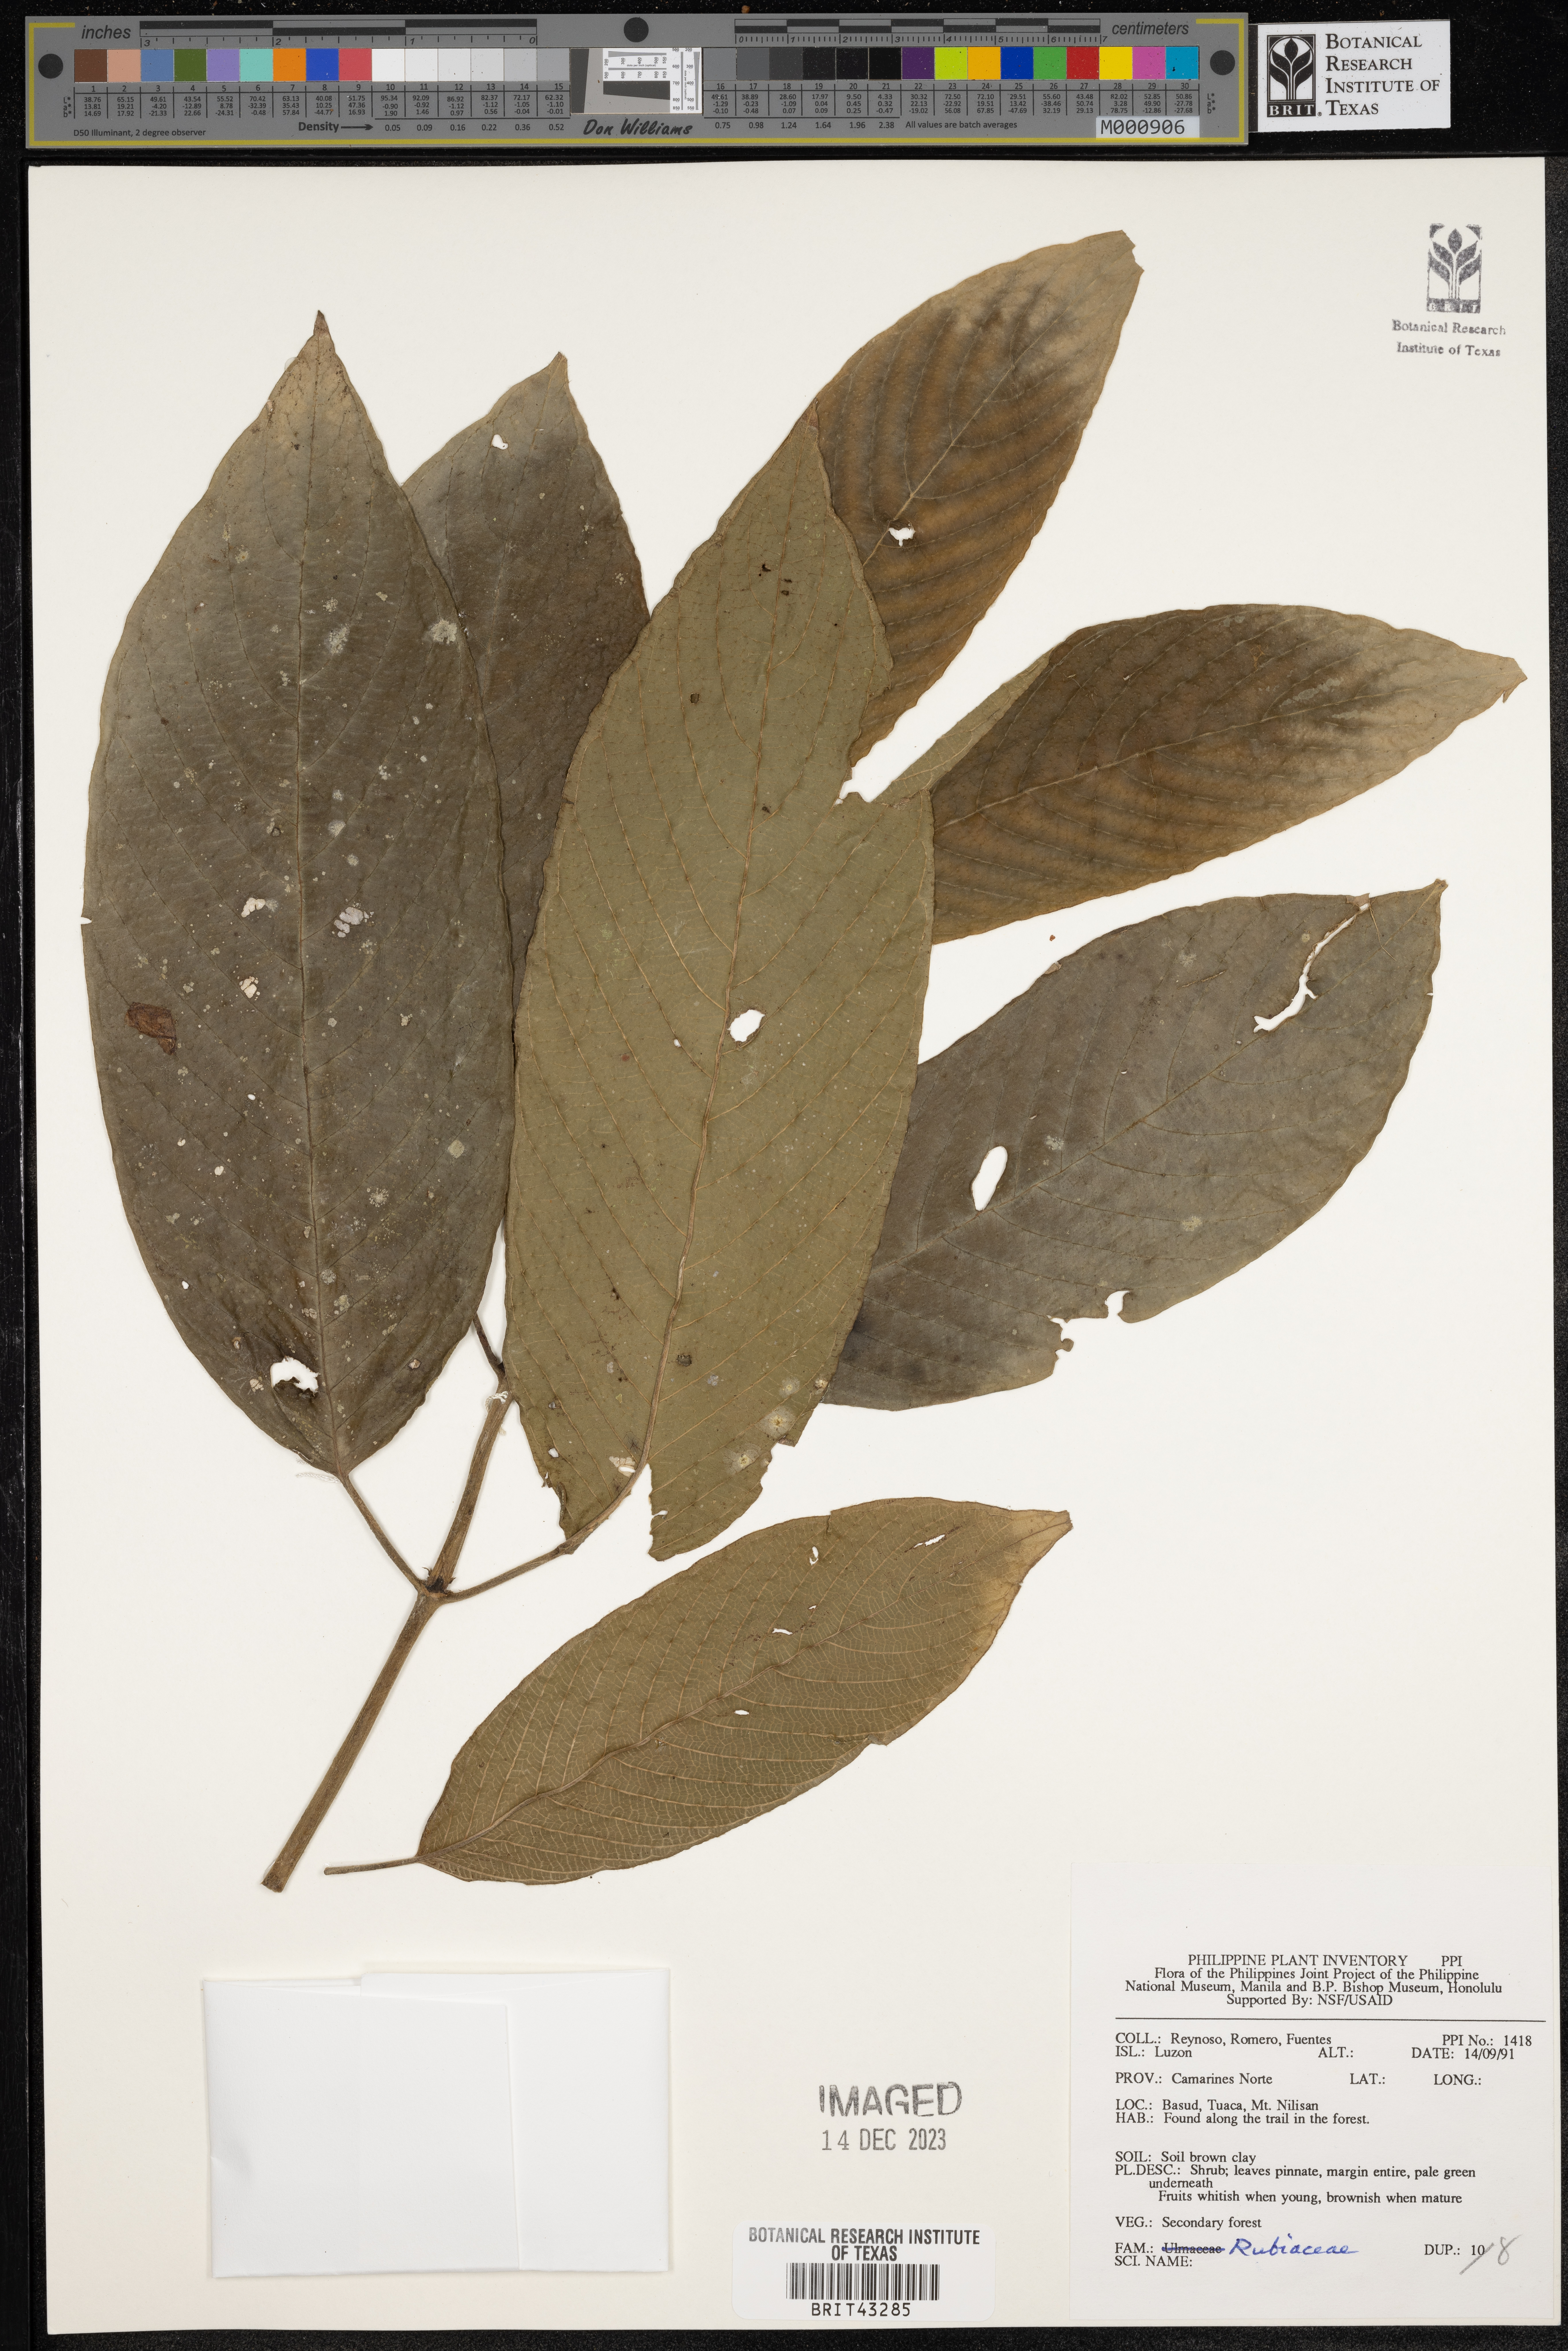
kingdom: Plantae
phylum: Tracheophyta
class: Magnoliopsida
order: Gentianales
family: Rubiaceae
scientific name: Rubiaceae
